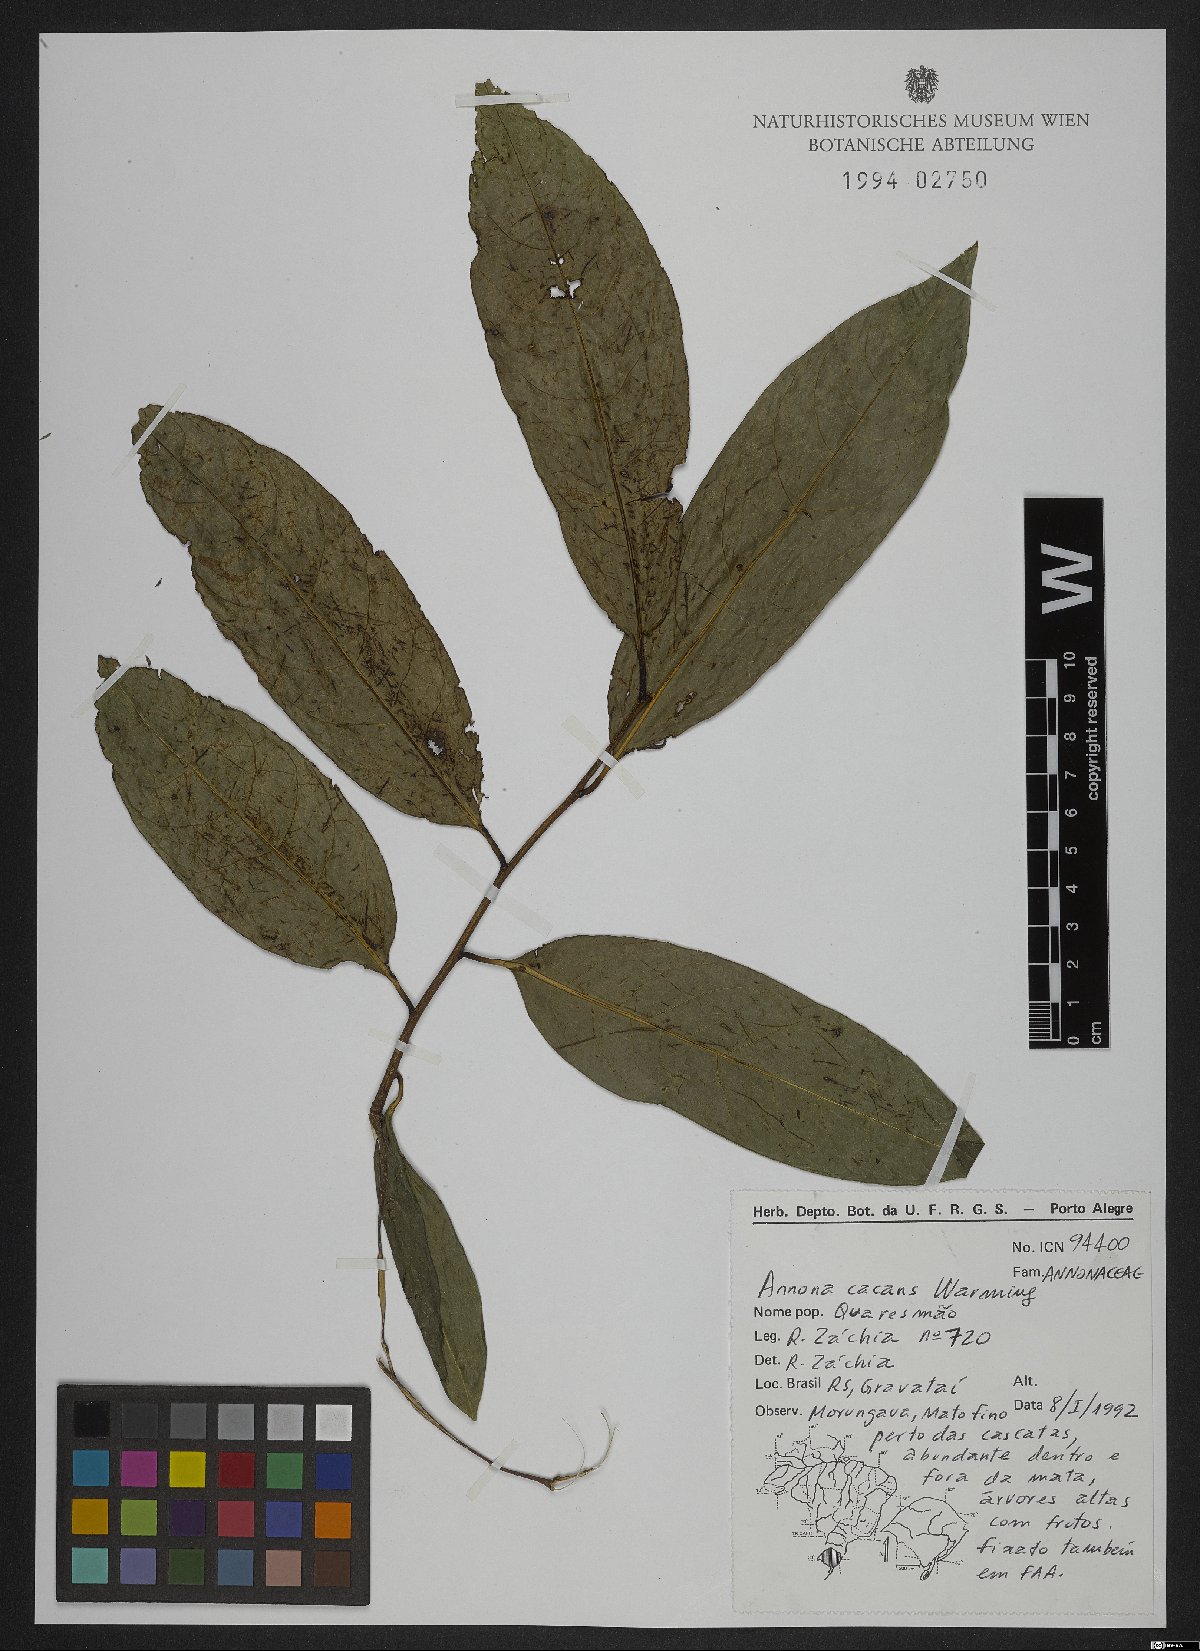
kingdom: Plantae
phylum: Tracheophyta
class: Magnoliopsida
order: Magnoliales
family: Annonaceae
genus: Annona
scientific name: Annona cacans
